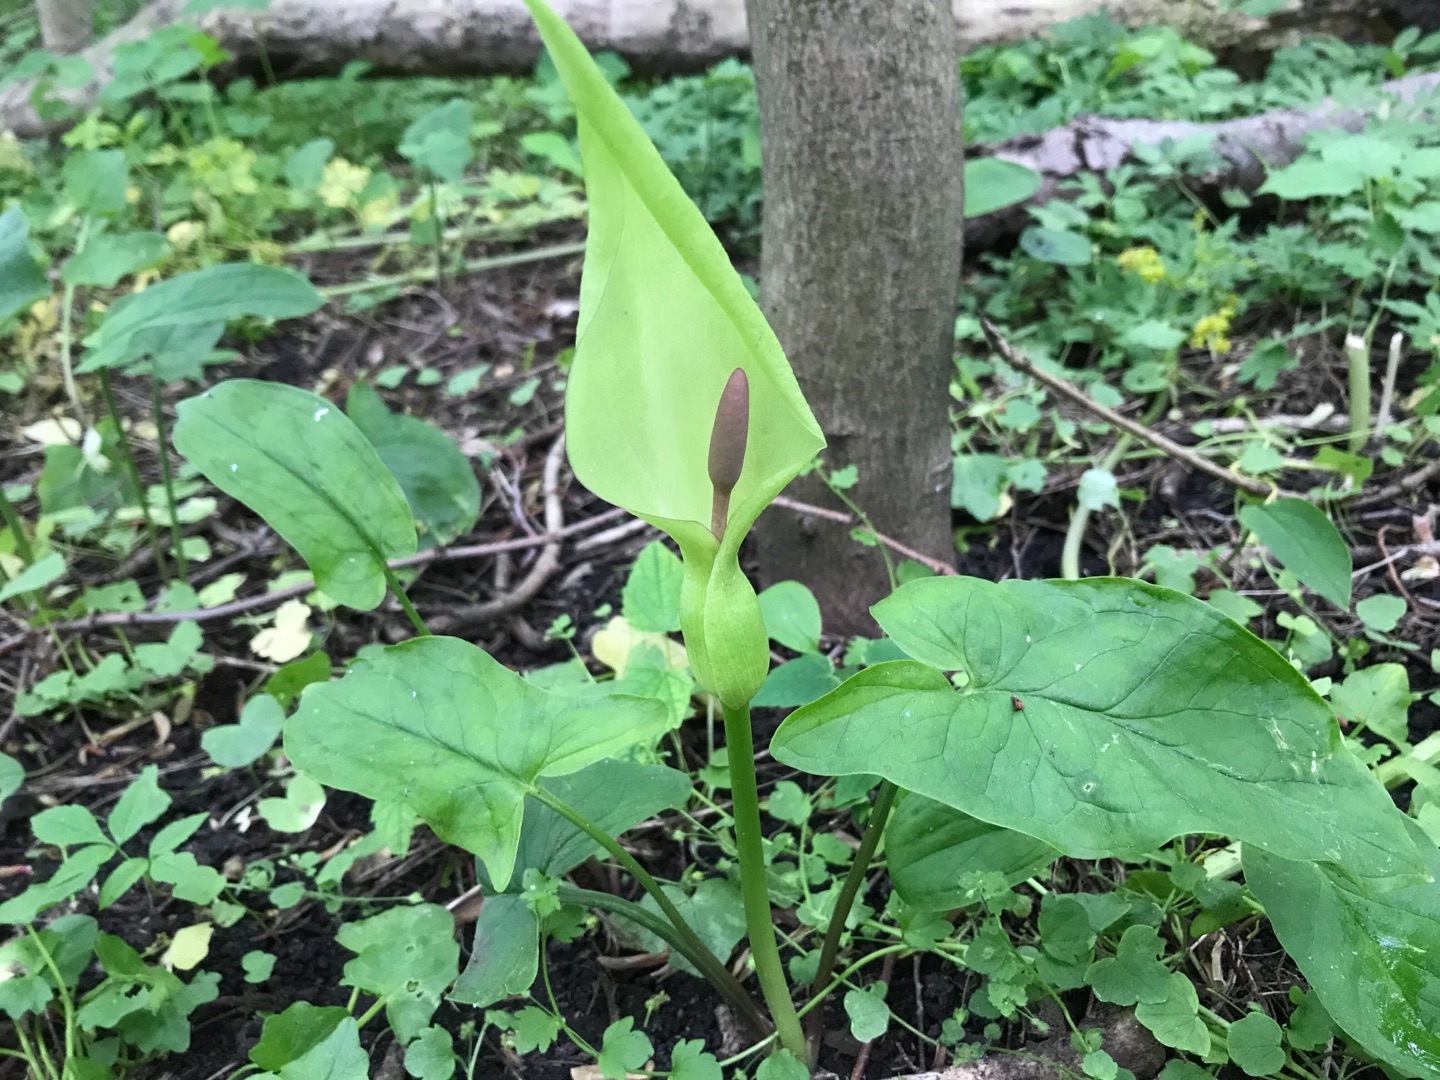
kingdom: Plantae
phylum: Tracheophyta
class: Liliopsida
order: Alismatales
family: Araceae
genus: Arum
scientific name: Arum maculatum
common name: Plettet arum
